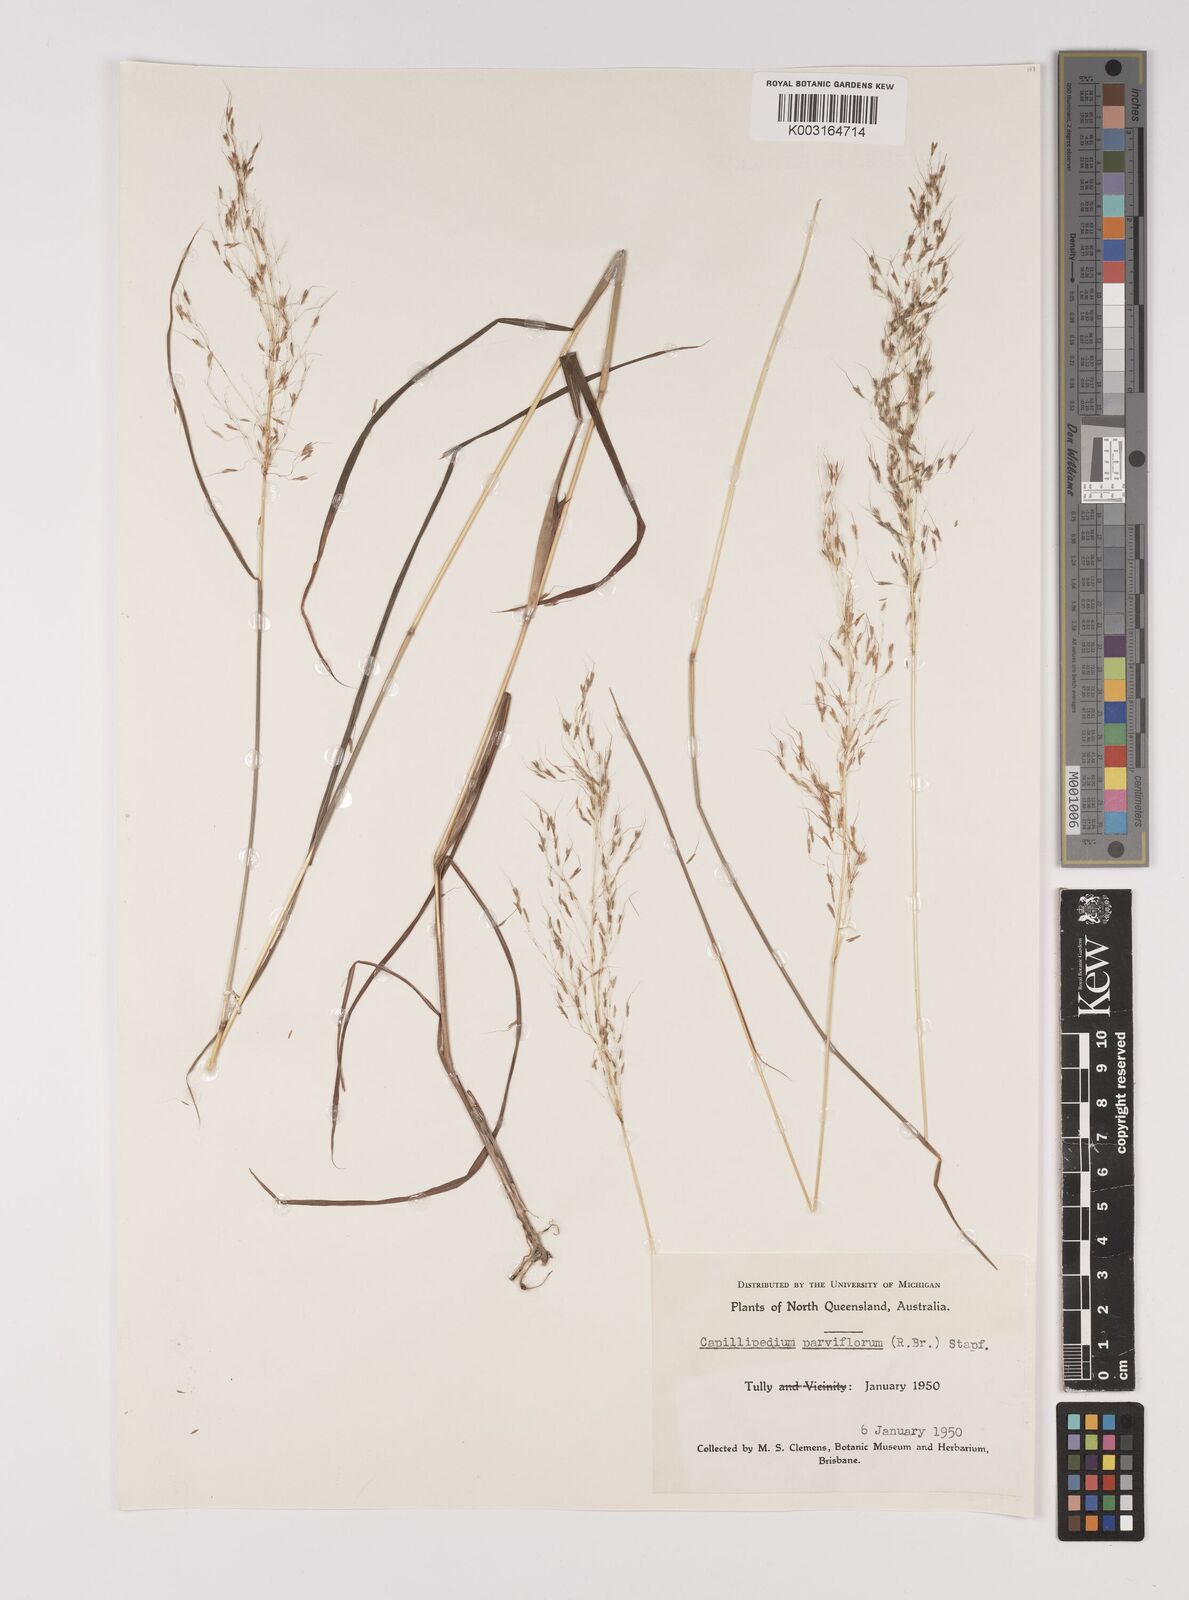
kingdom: Plantae
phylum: Tracheophyta
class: Liliopsida
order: Poales
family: Poaceae
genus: Capillipedium
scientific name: Capillipedium parviflorum
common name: Golden-beard
